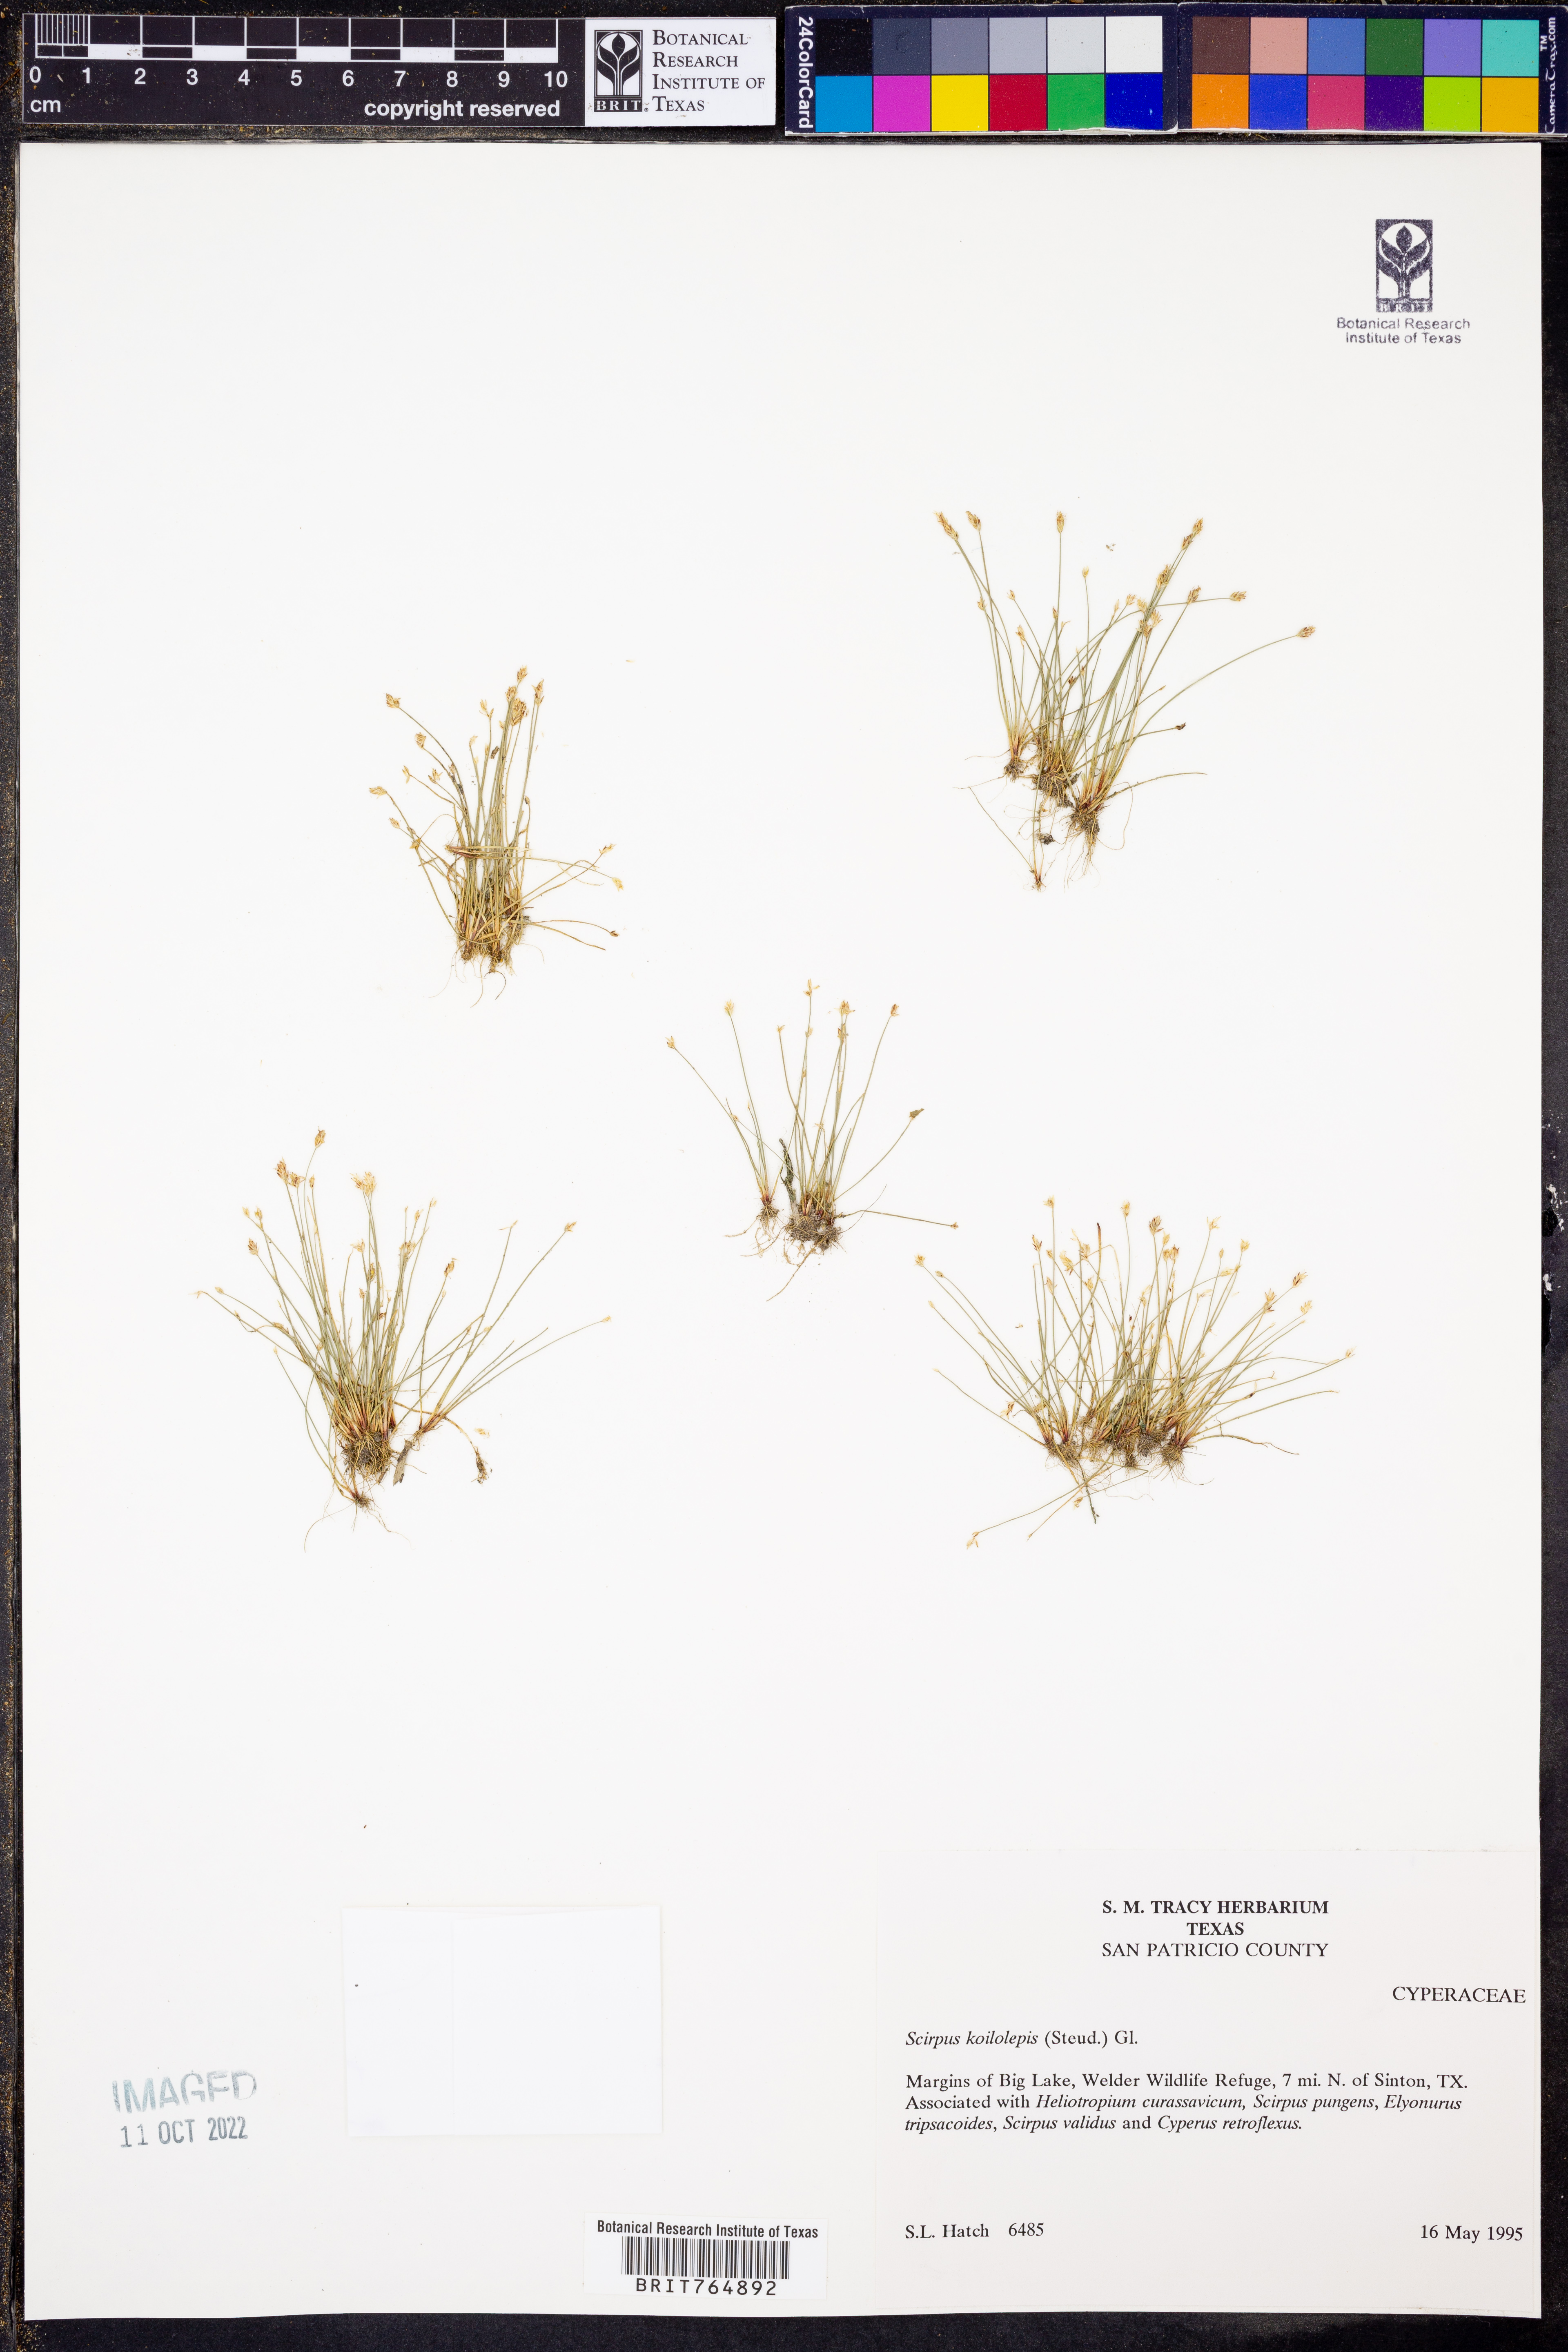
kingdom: Plantae
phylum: Tracheophyta
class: Liliopsida
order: Poales
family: Cyperaceae
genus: Isolepis
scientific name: Isolepis carinata
